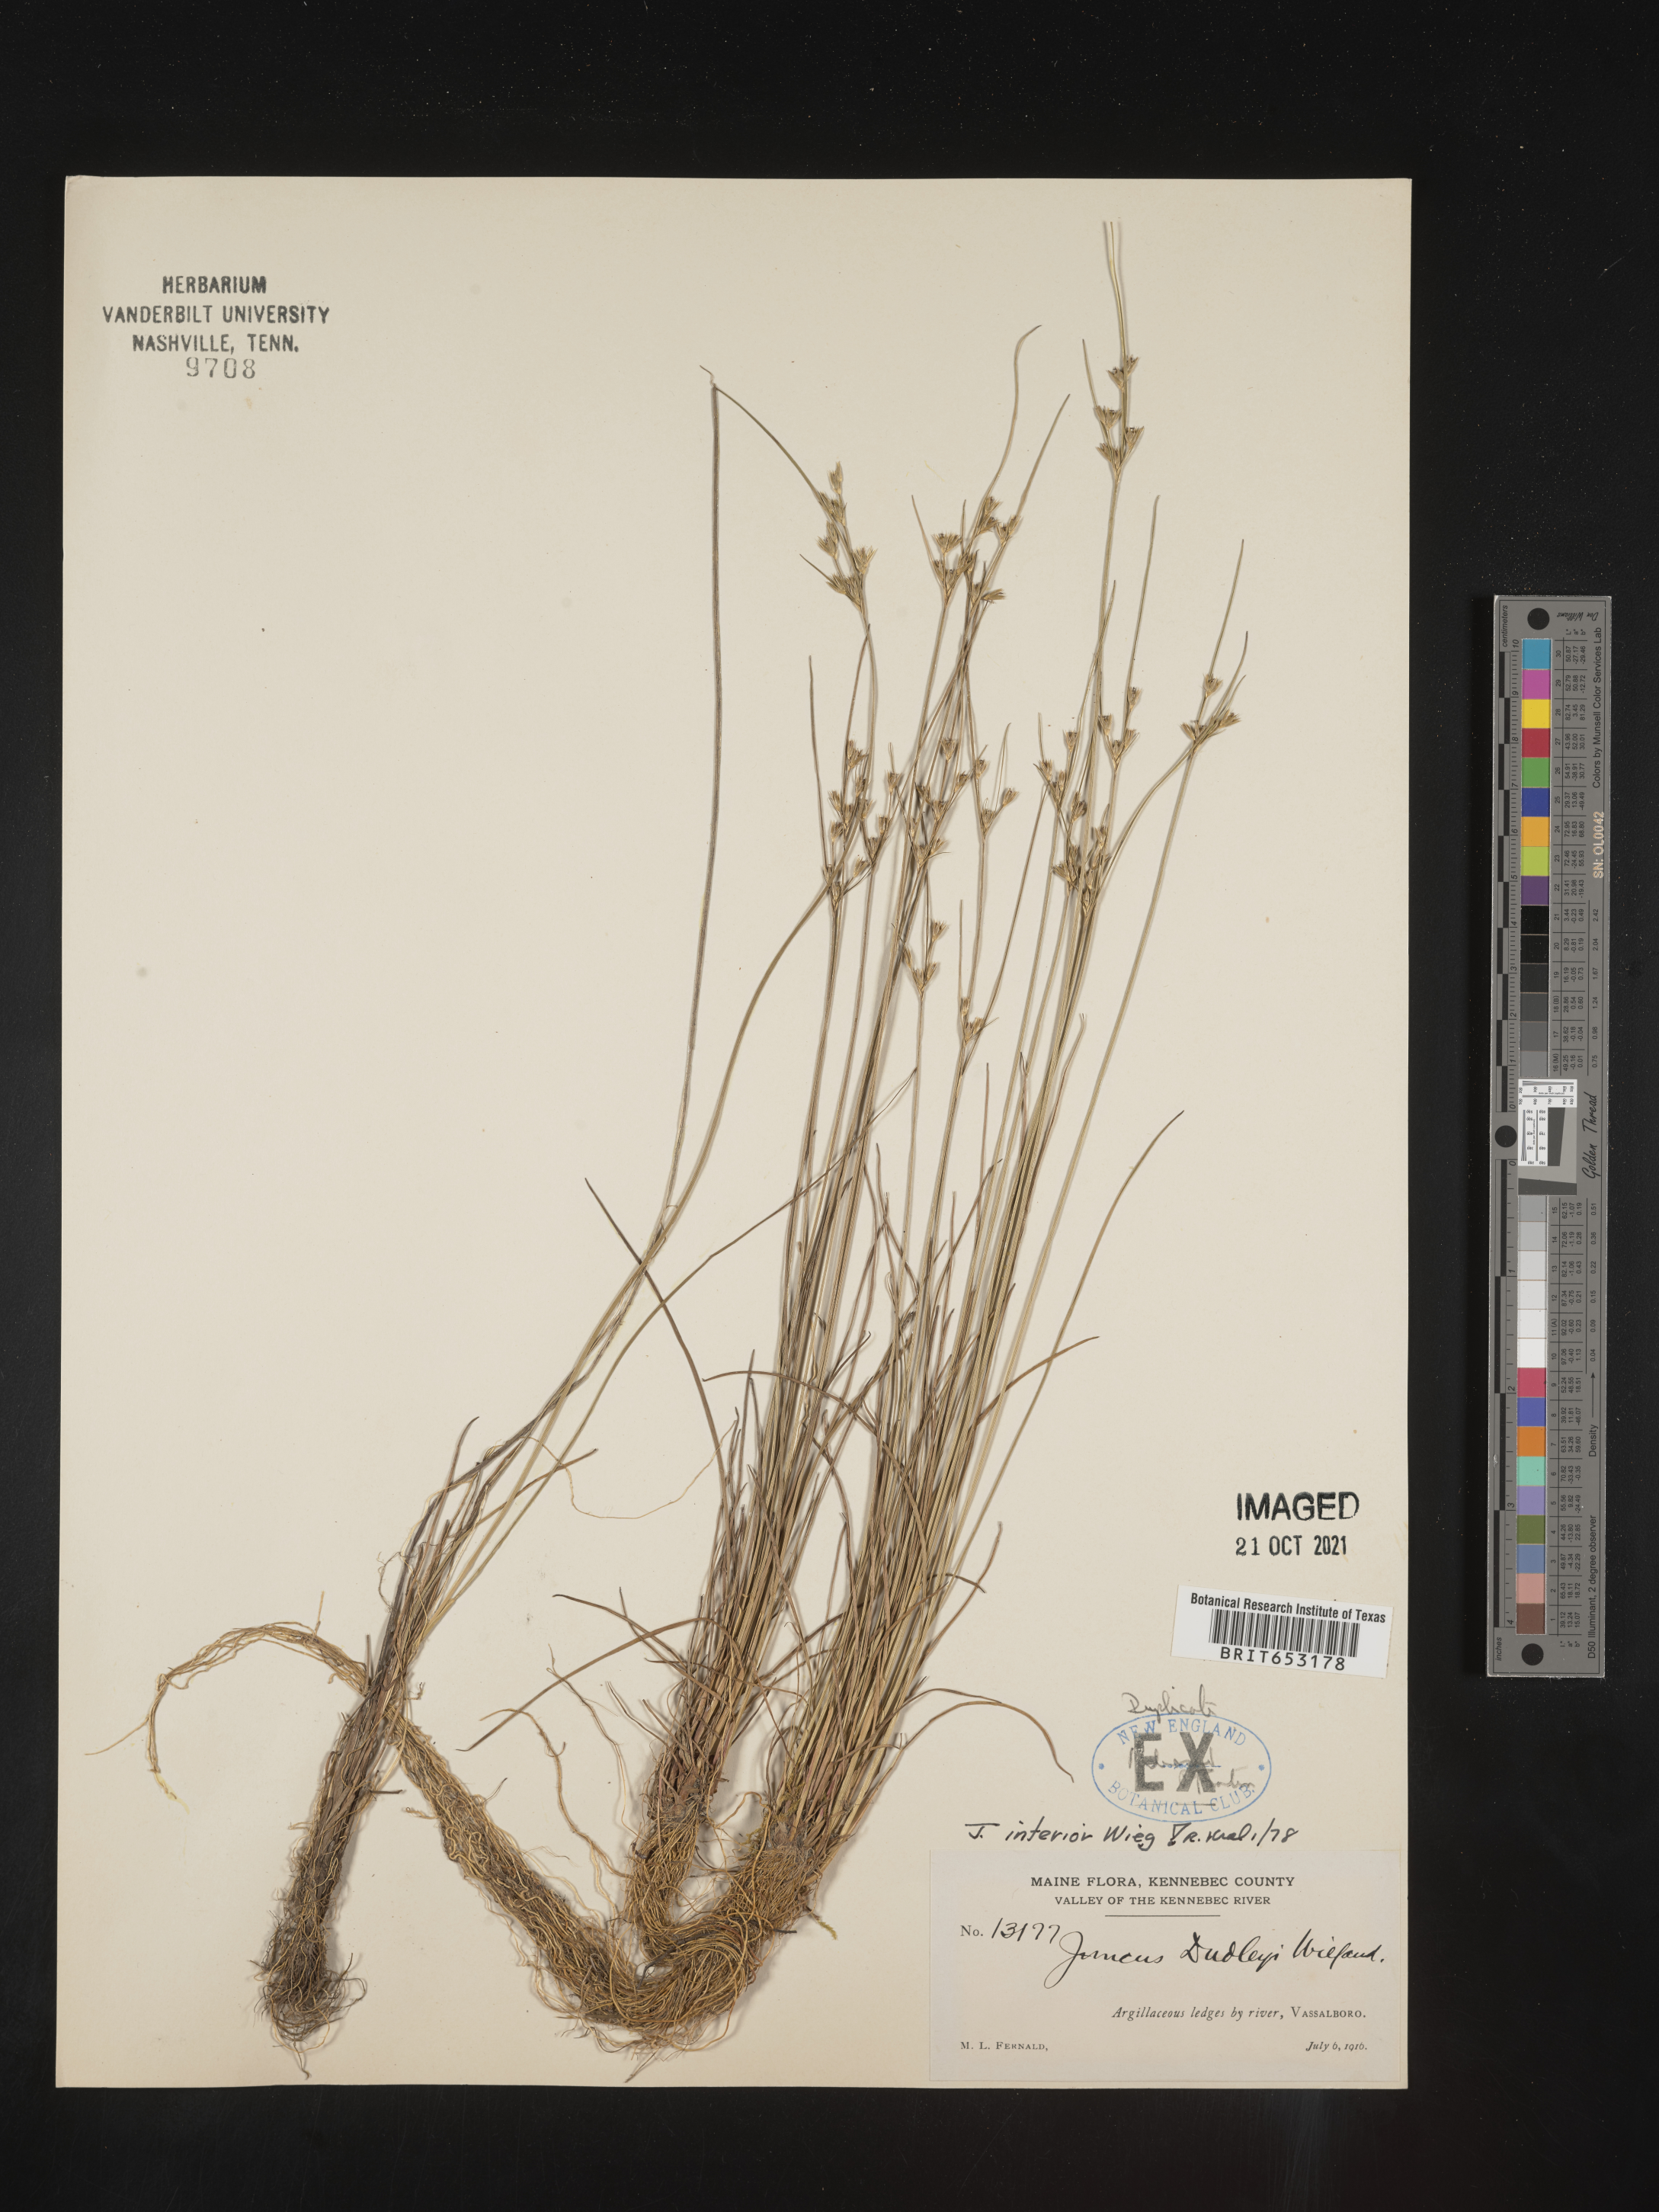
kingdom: Plantae
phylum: Tracheophyta
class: Liliopsida
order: Poales
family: Juncaceae
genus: Juncus
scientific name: Juncus interior
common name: Interior rush
